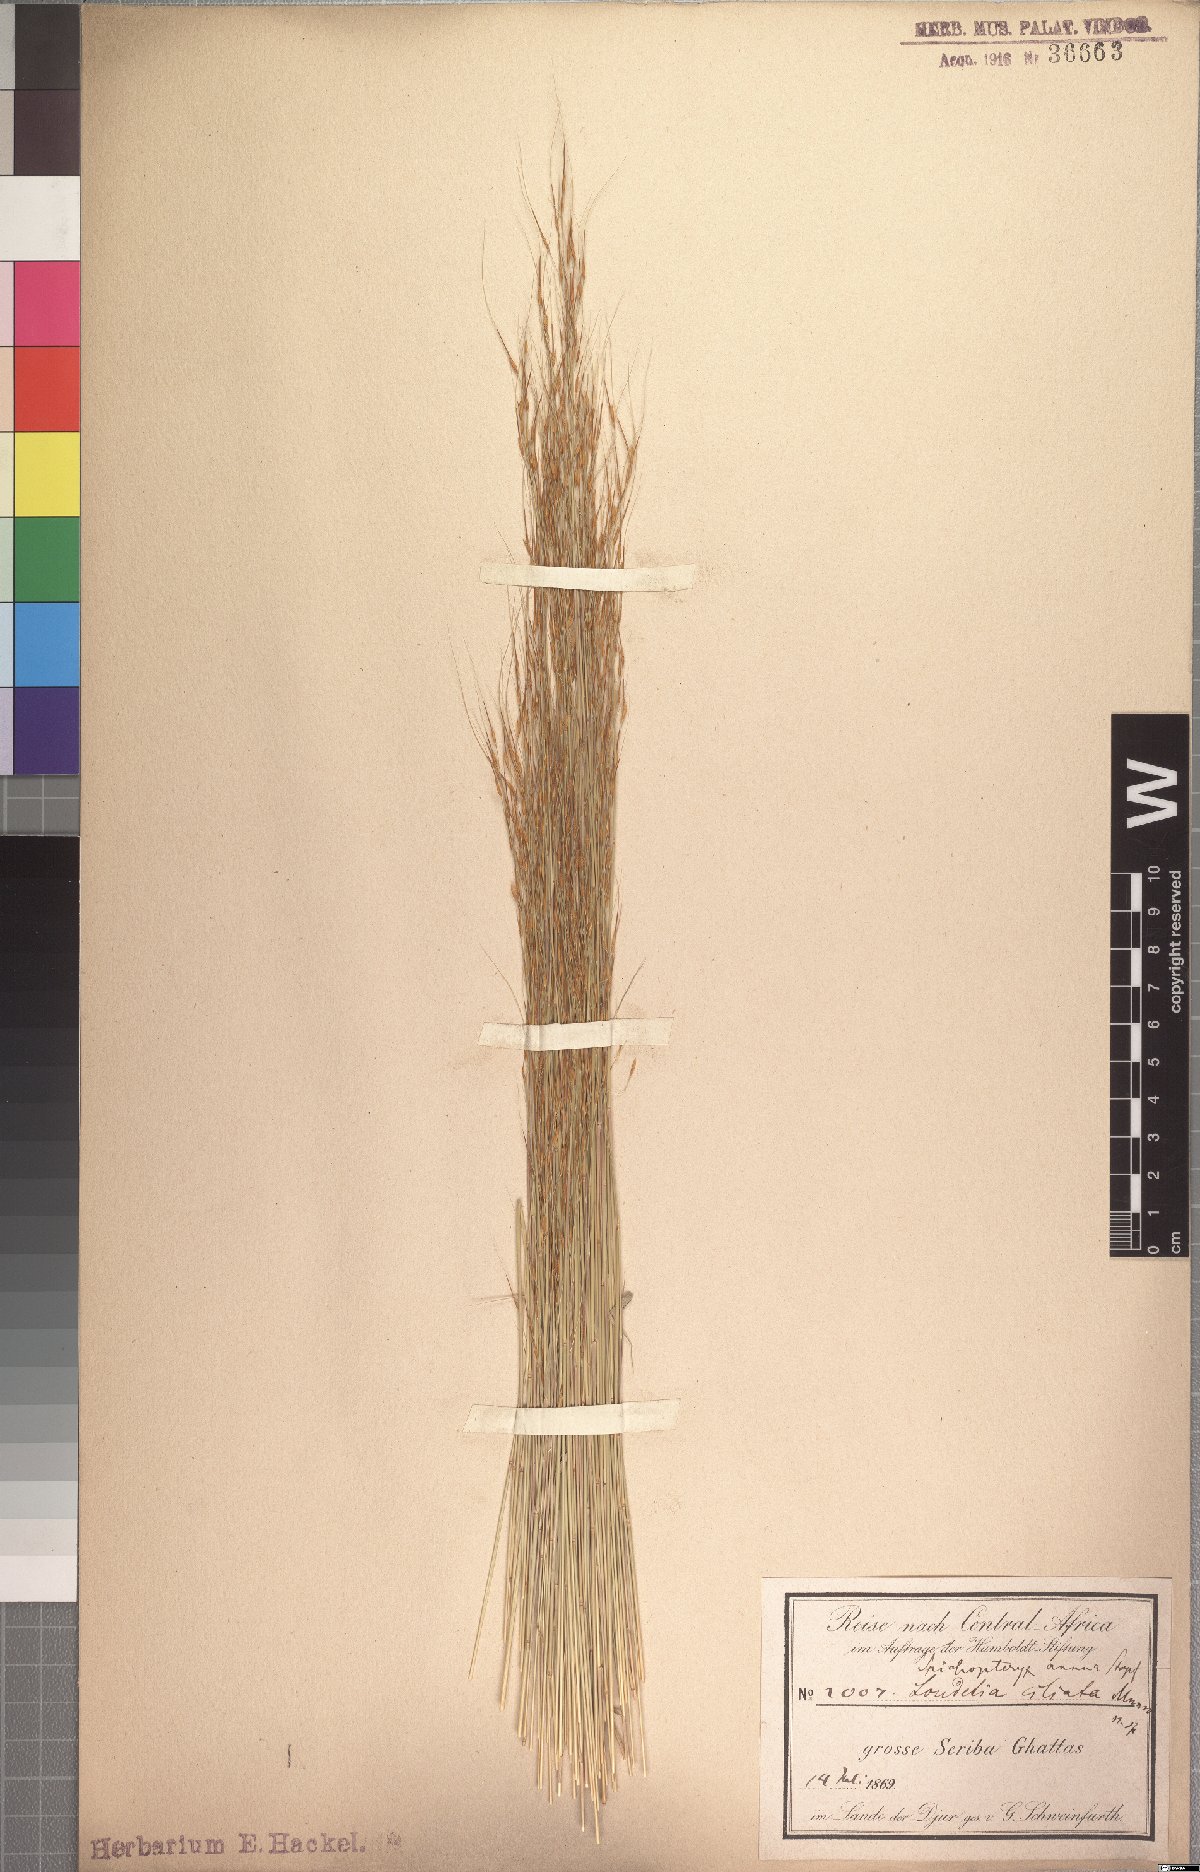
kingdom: Plantae
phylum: Tracheophyta
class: Liliopsida
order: Poales
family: Poaceae
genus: Loudetia
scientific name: Loudetia annua
